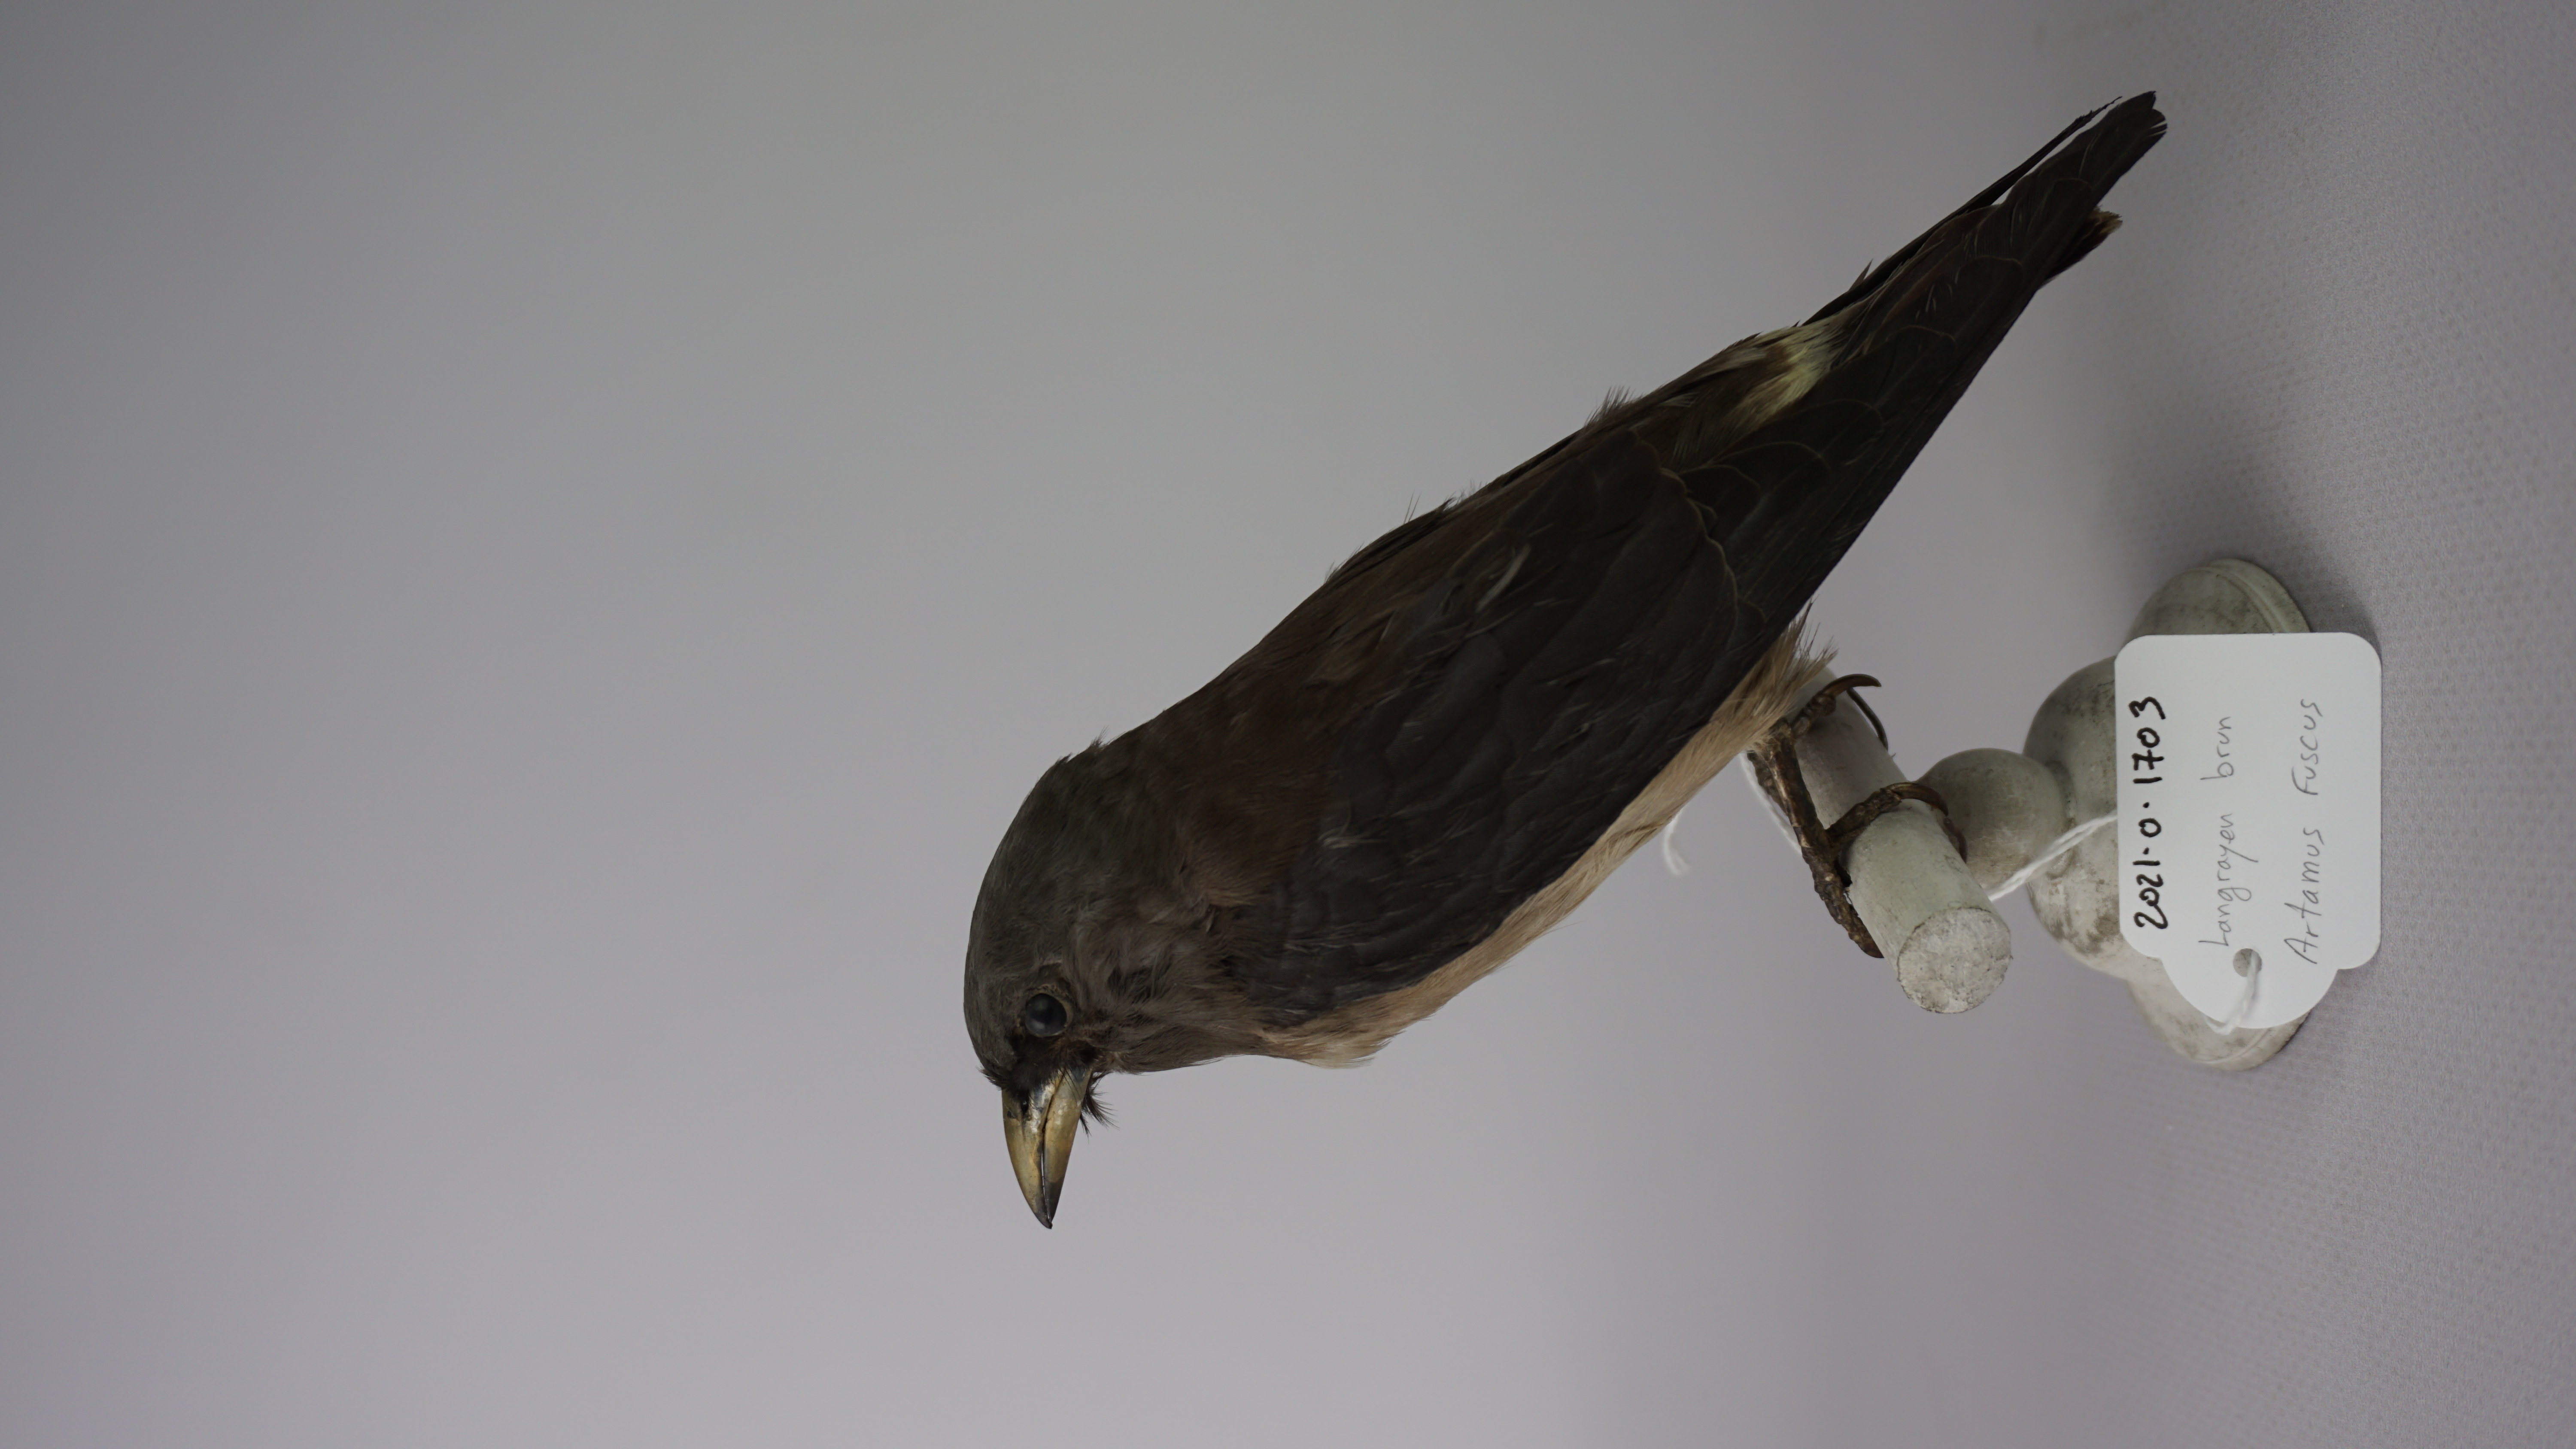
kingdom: Animalia
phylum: Chordata
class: Aves
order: Passeriformes
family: Artamidae
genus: Artamus
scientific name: Artamus fuscus
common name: Ashy woodswallow
